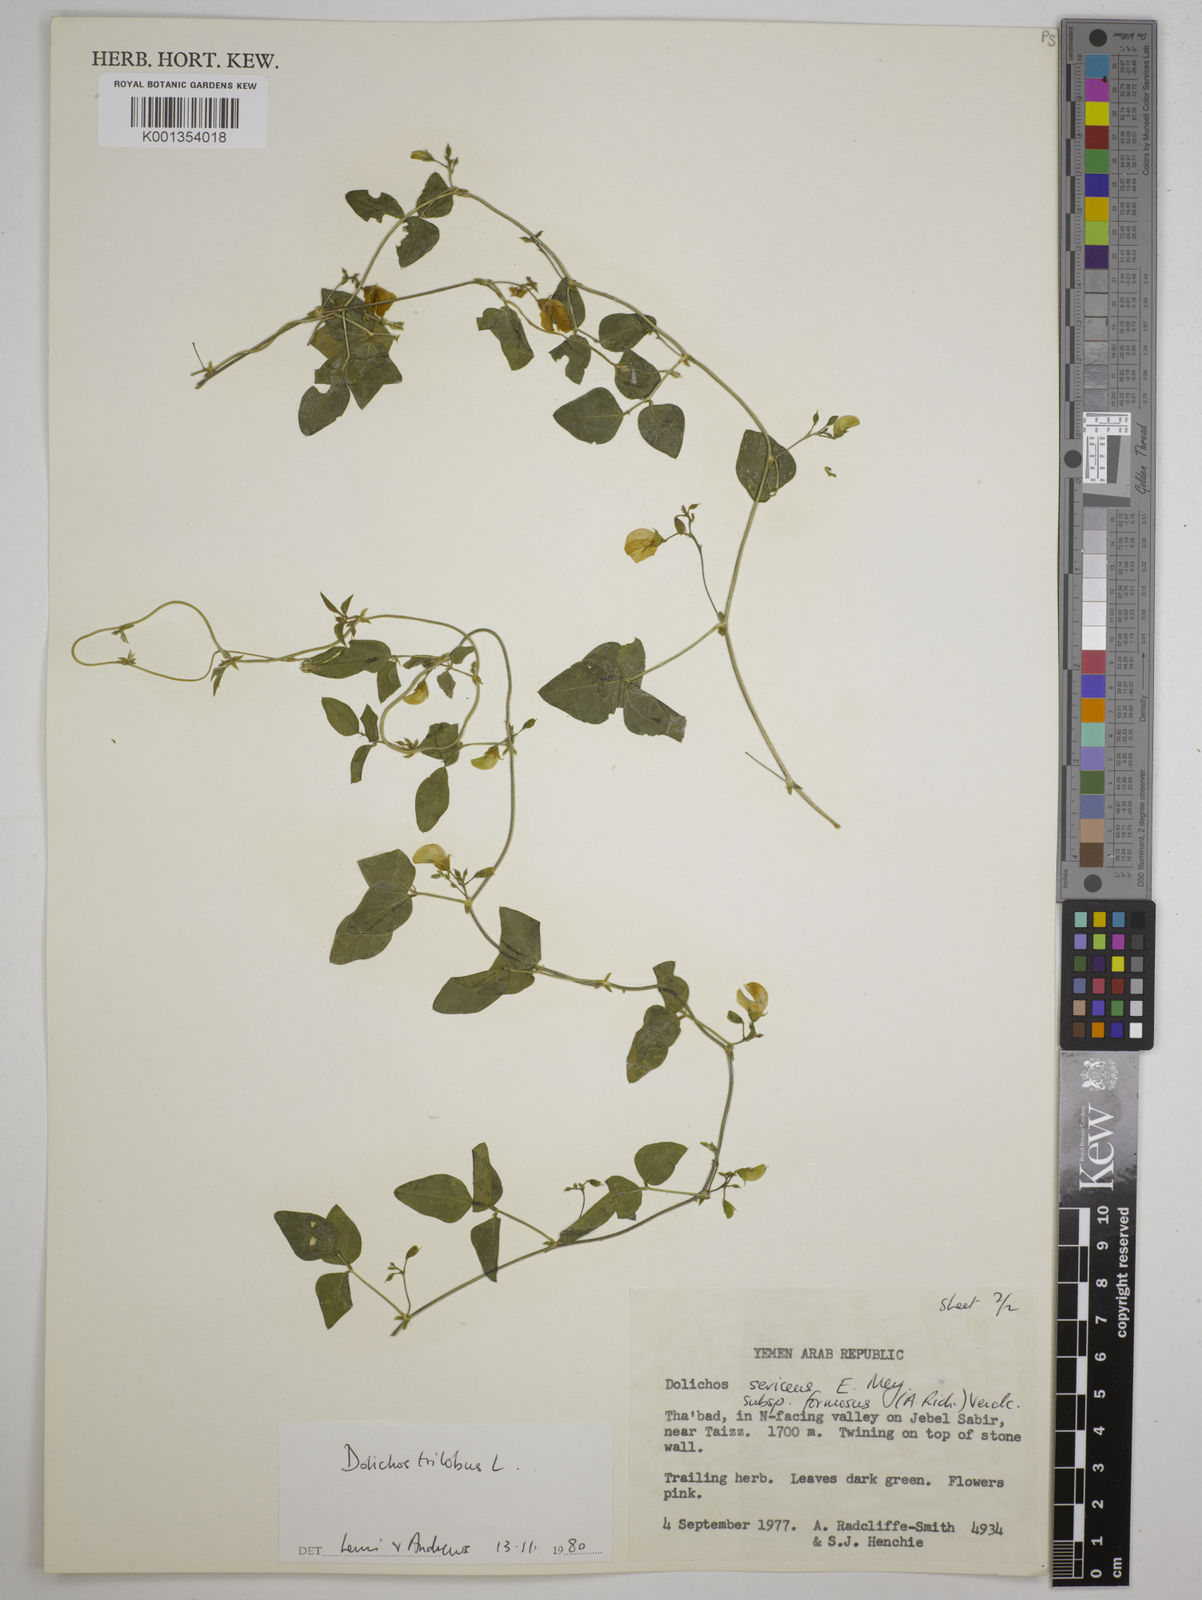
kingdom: Plantae
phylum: Tracheophyta
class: Magnoliopsida
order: Fabales
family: Fabaceae
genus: Dolichos
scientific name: Dolichos
